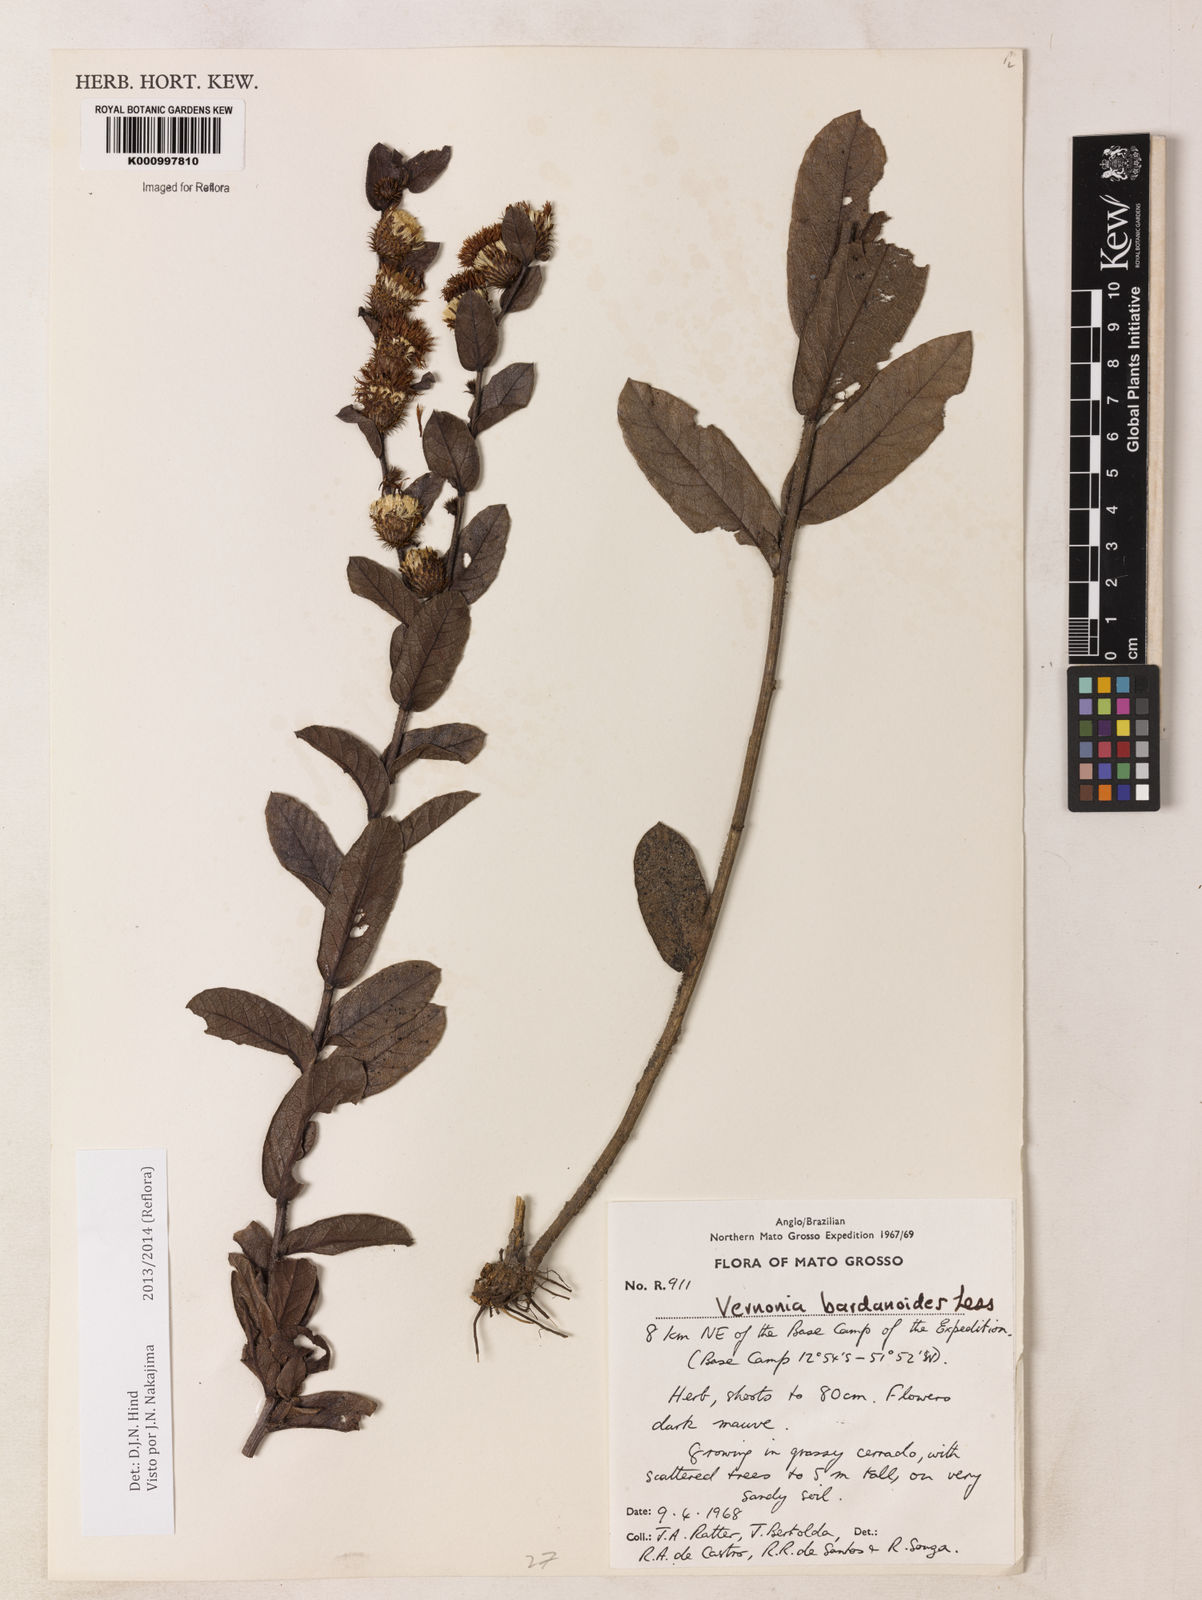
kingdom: Plantae
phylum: Tracheophyta
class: Magnoliopsida
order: Asterales
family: Asteraceae
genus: Lessingianthus
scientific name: Lessingianthus bardanioides
